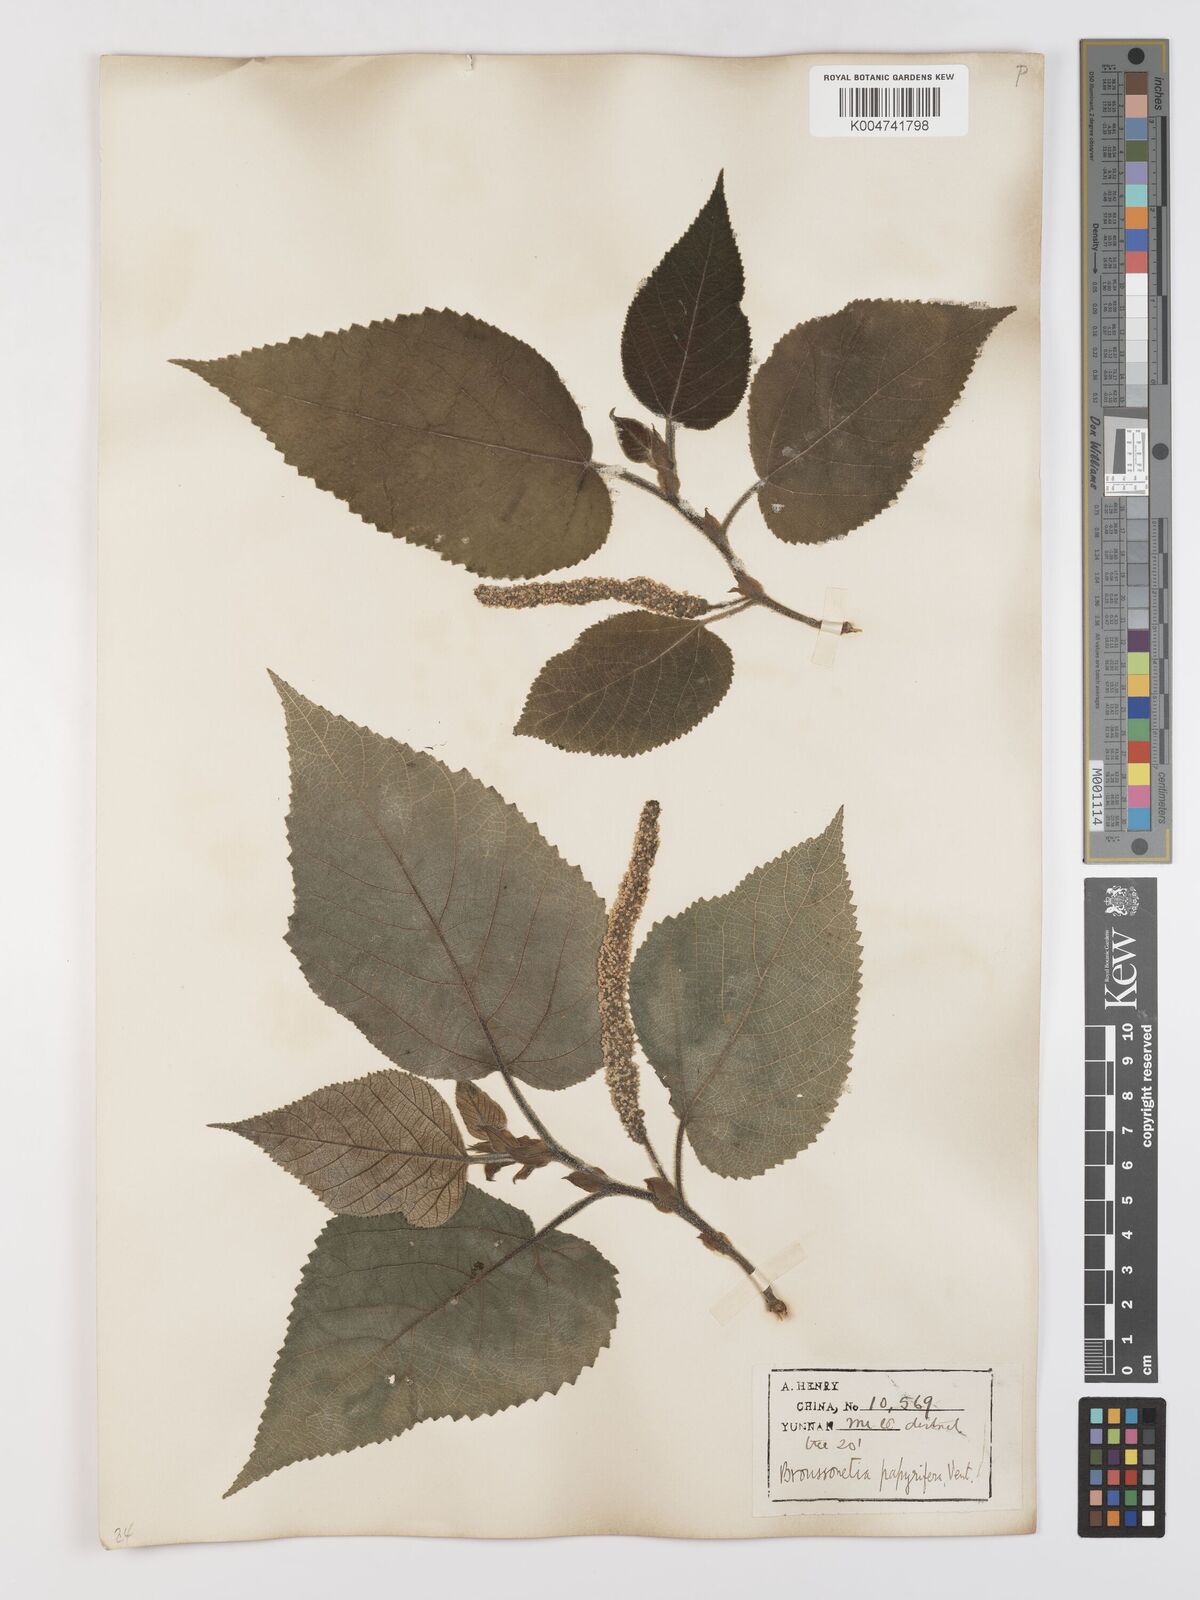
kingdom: Plantae
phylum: Tracheophyta
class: Magnoliopsida
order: Rosales
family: Moraceae
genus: Broussonetia
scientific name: Broussonetia papyrifera
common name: Paper mulberry
